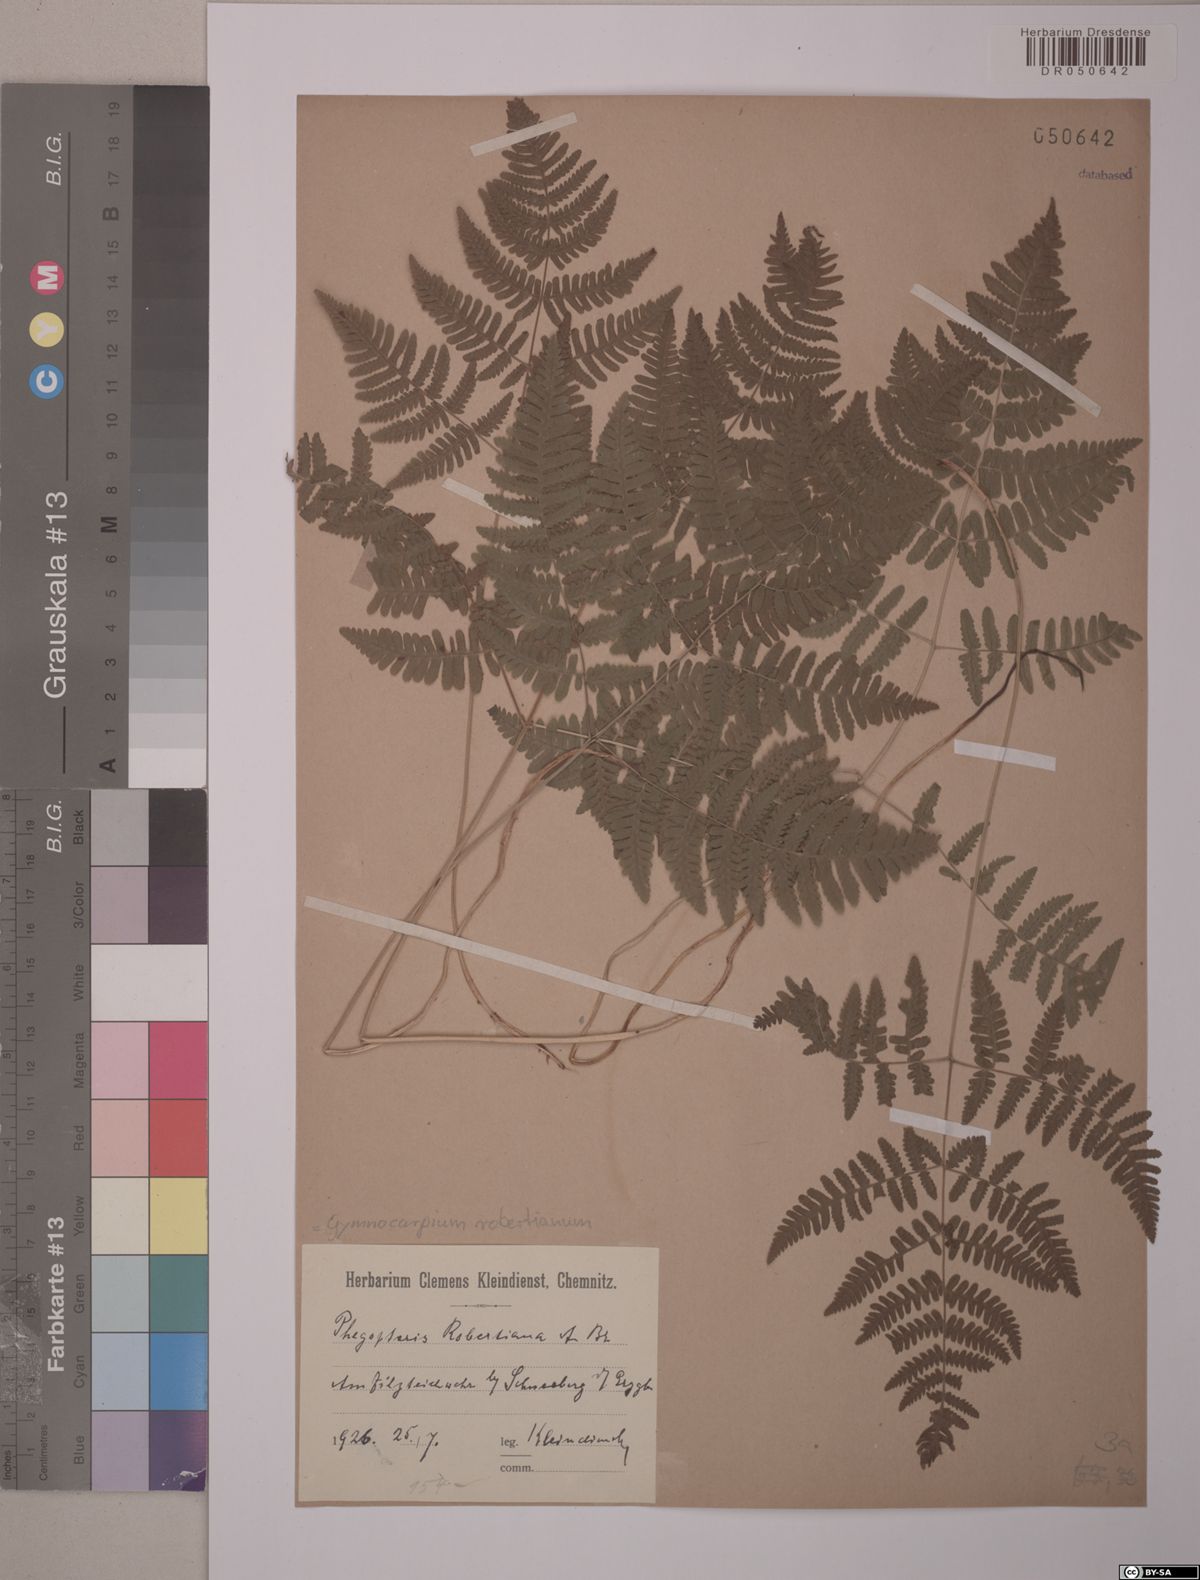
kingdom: Plantae
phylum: Tracheophyta
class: Polypodiopsida
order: Polypodiales
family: Cystopteridaceae
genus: Gymnocarpium
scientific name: Gymnocarpium robertianum
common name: Limestone fern
